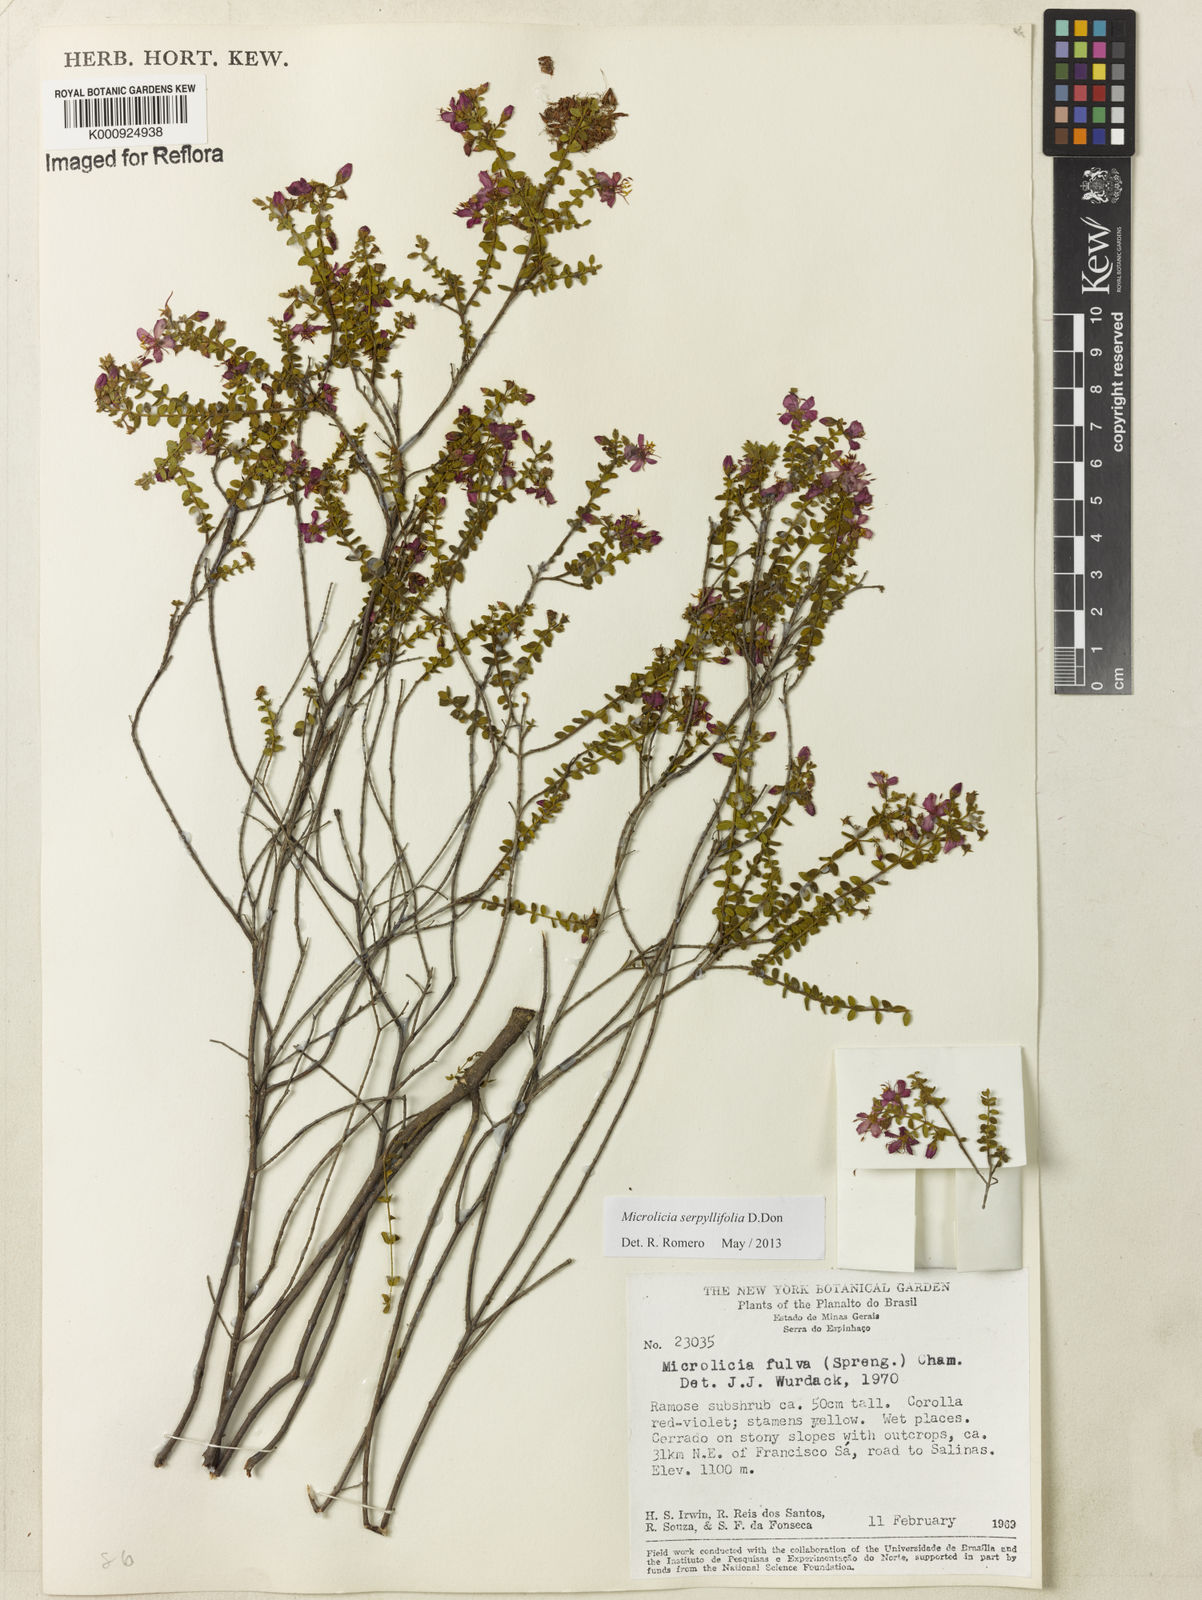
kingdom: Plantae
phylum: Tracheophyta
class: Magnoliopsida
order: Myrtales
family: Melastomataceae
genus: Microlicia
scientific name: Microlicia fulva
